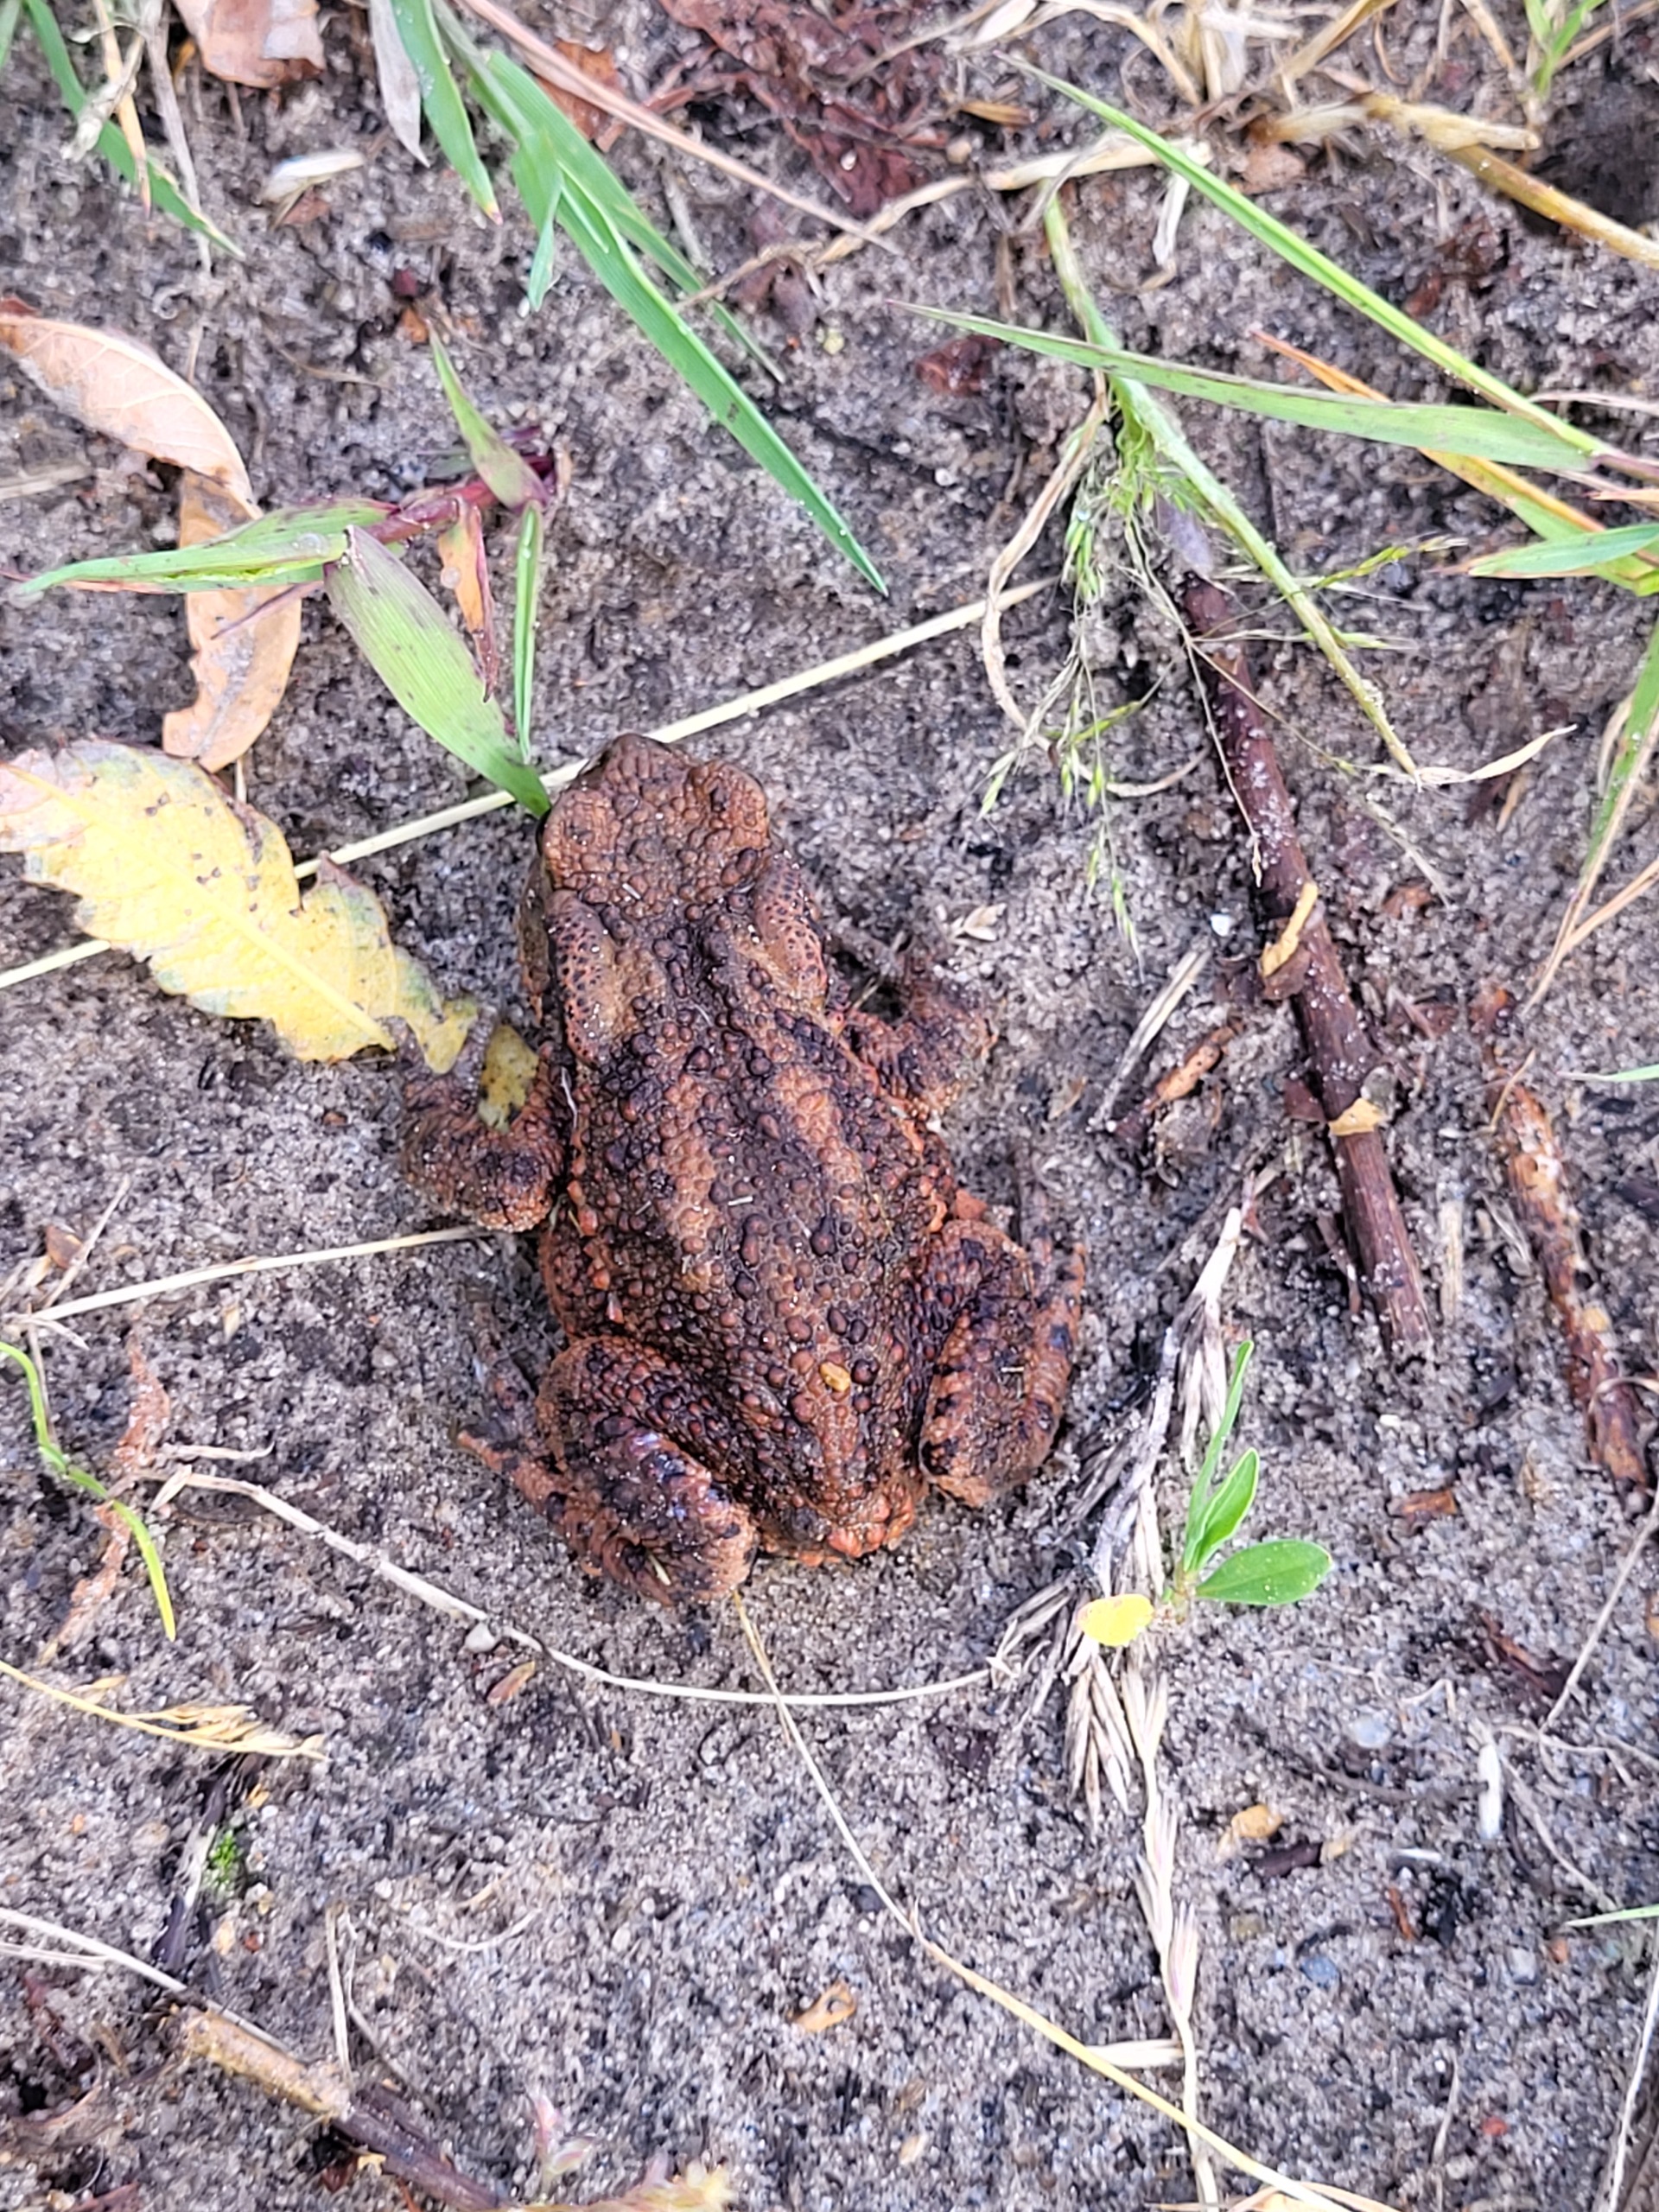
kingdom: Animalia
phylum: Chordata
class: Amphibia
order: Anura
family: Bufonidae
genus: Bufo
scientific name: Bufo bufo
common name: Skrubtudse
